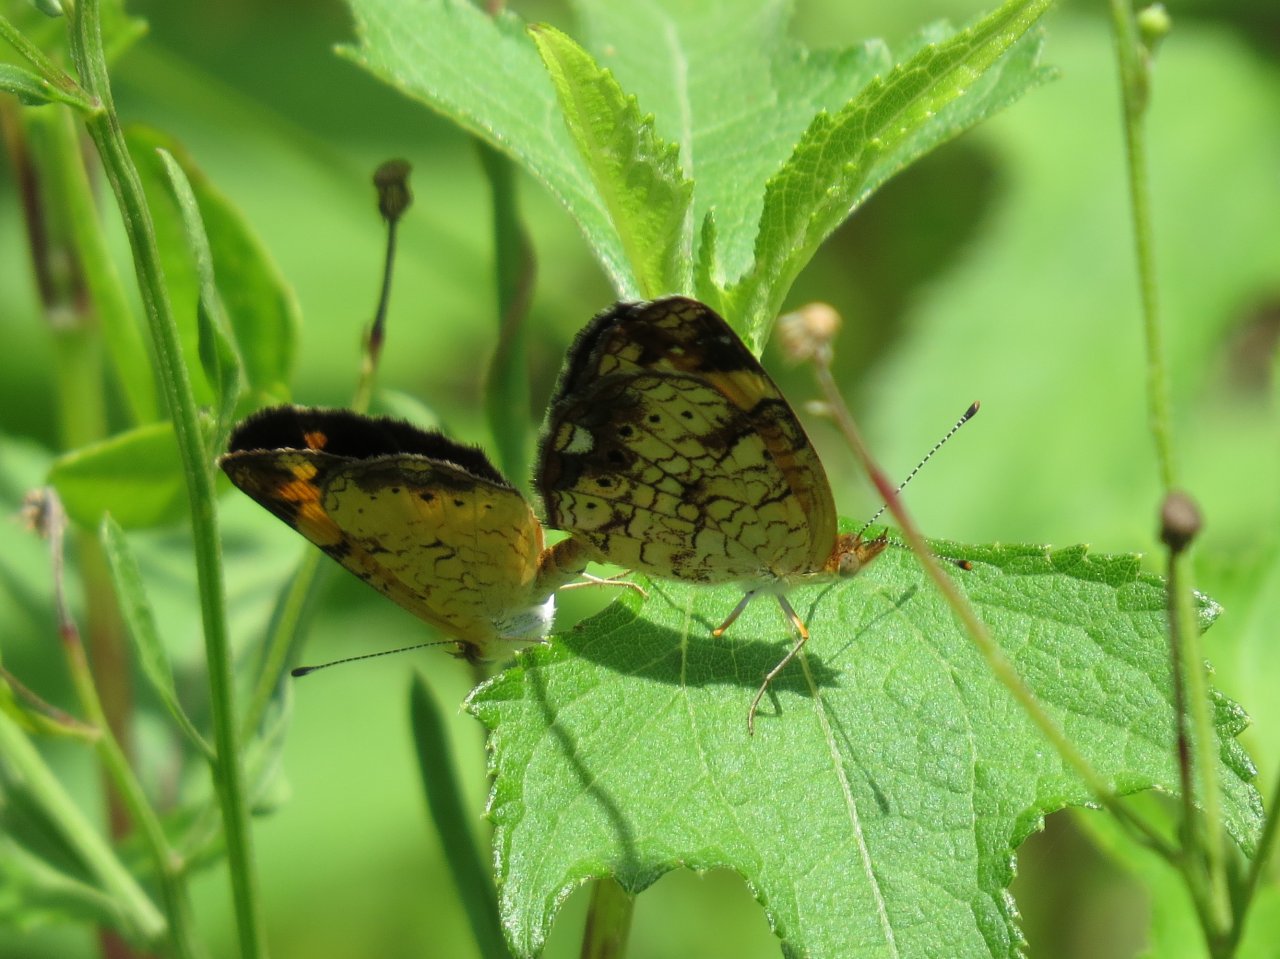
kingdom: Animalia
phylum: Arthropoda
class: Insecta
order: Lepidoptera
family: Nymphalidae
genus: Phyciodes
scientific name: Phyciodes tharos
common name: Pearl Crescent
